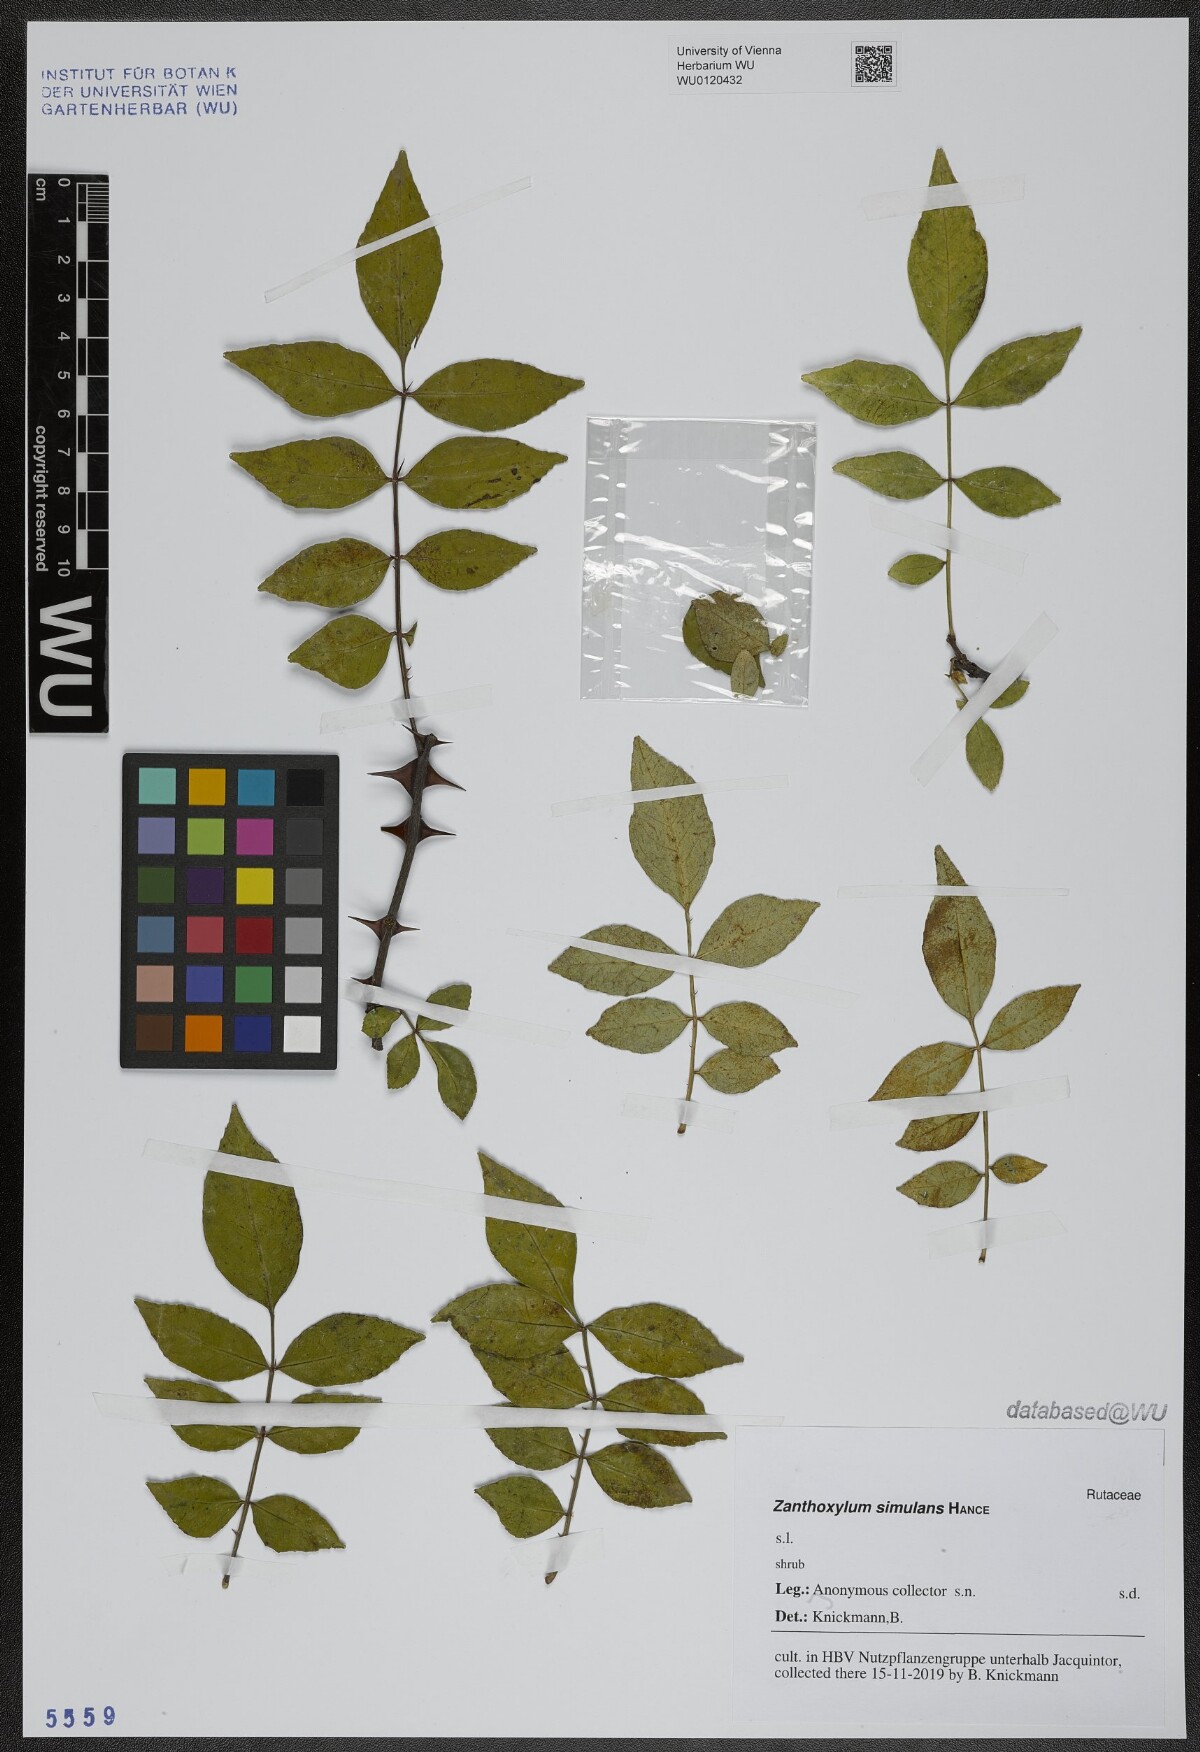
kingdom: Plantae
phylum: Tracheophyta
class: Magnoliopsida
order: Sapindales
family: Rutaceae
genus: Zanthoxylum
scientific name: Zanthoxylum simulans
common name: Chinese-pepper
